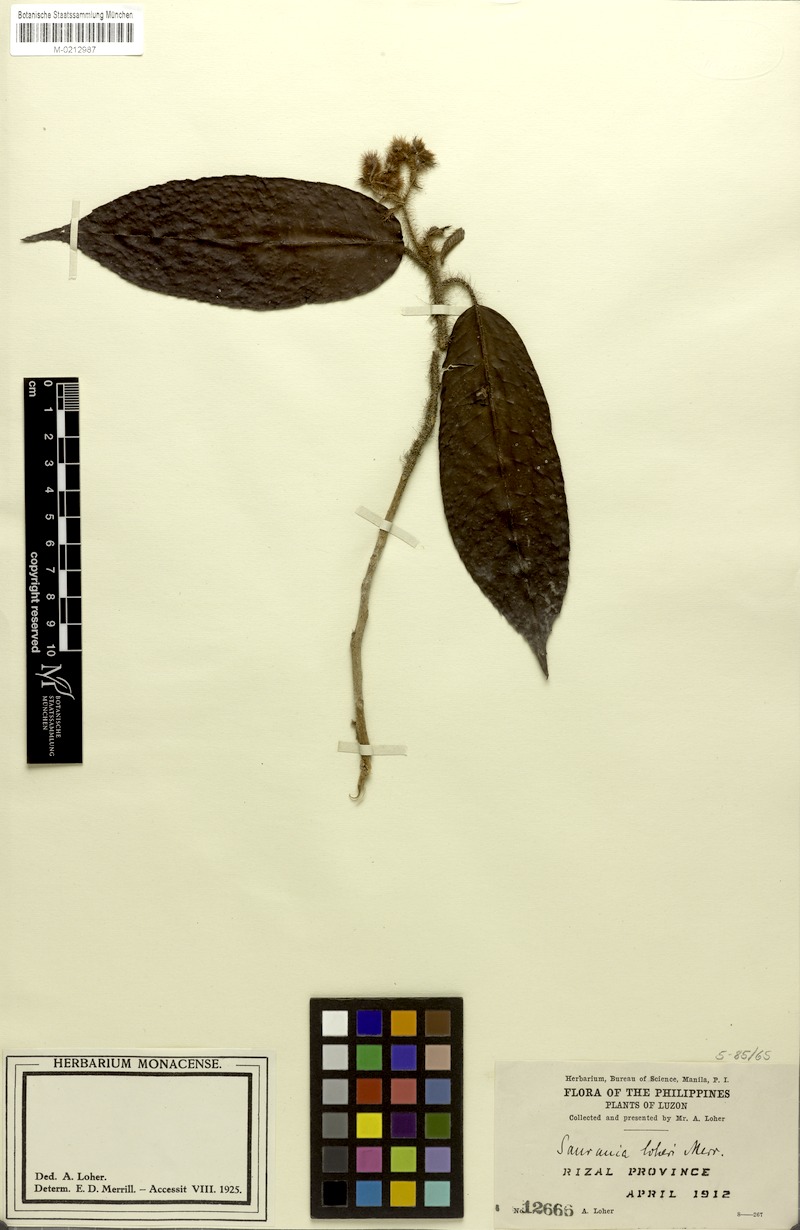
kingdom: Plantae
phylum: Tracheophyta
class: Magnoliopsida
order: Ericales
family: Actinidiaceae
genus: Saurauia
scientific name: Saurauia loheri
